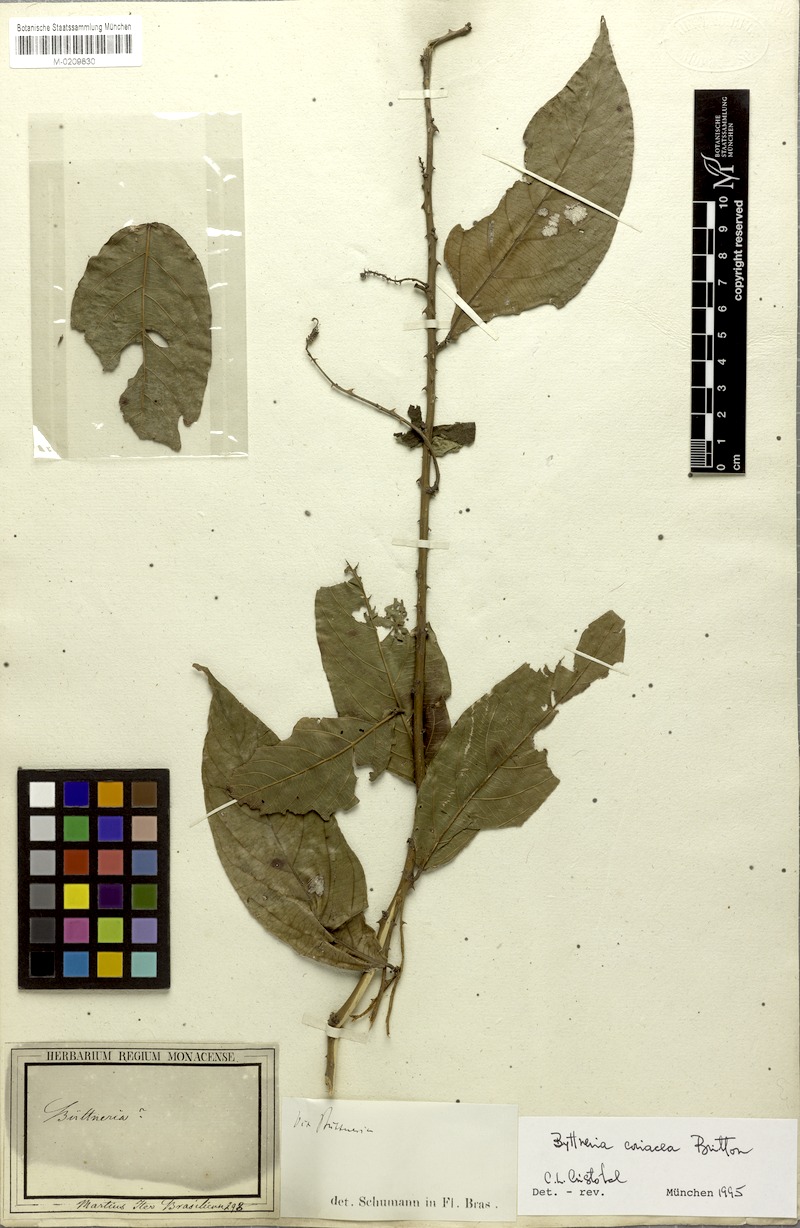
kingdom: Plantae
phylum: Tracheophyta
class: Magnoliopsida
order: Malvales
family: Malvaceae
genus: Byttneria
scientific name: Byttneria coriacea
